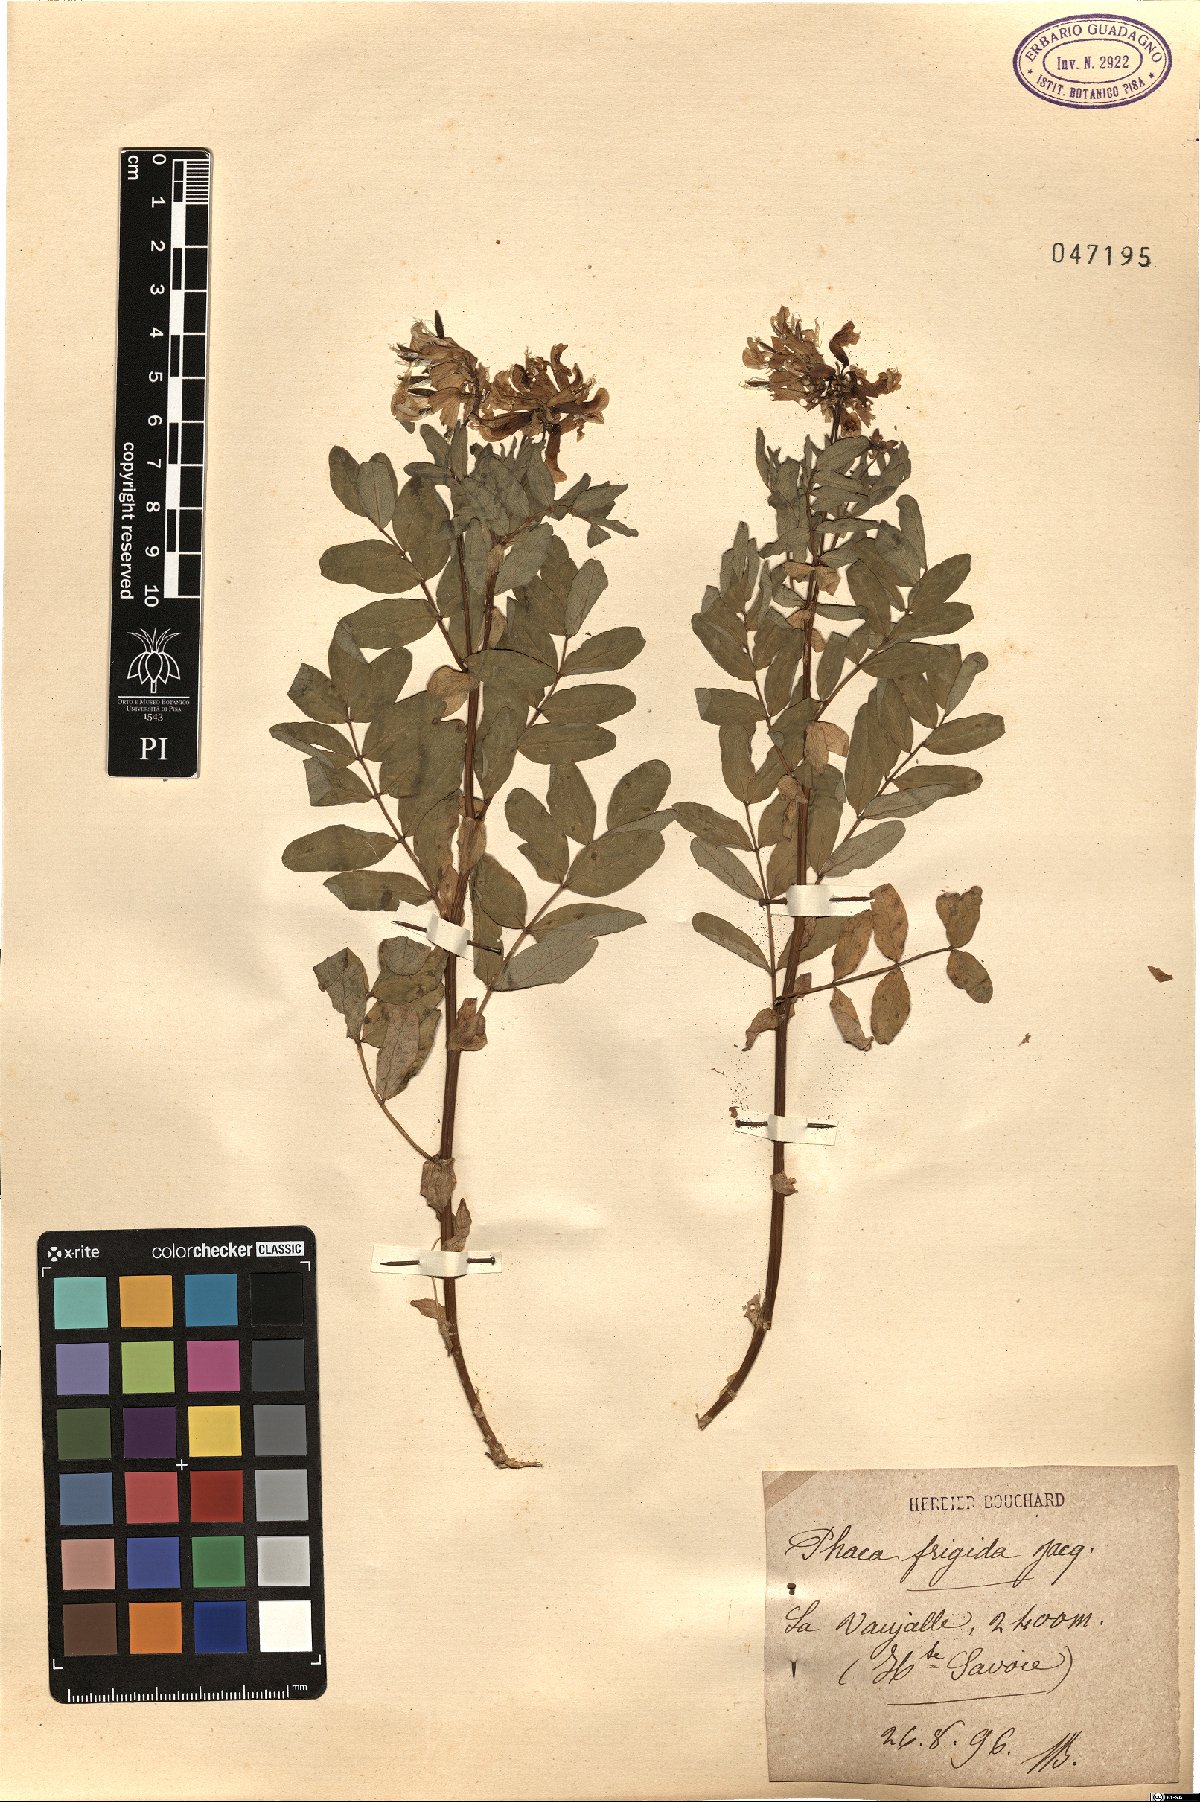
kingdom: Plantae
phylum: Tracheophyta
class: Magnoliopsida
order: Fabales
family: Fabaceae
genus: Astragalus
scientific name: Astragalus frigidus
